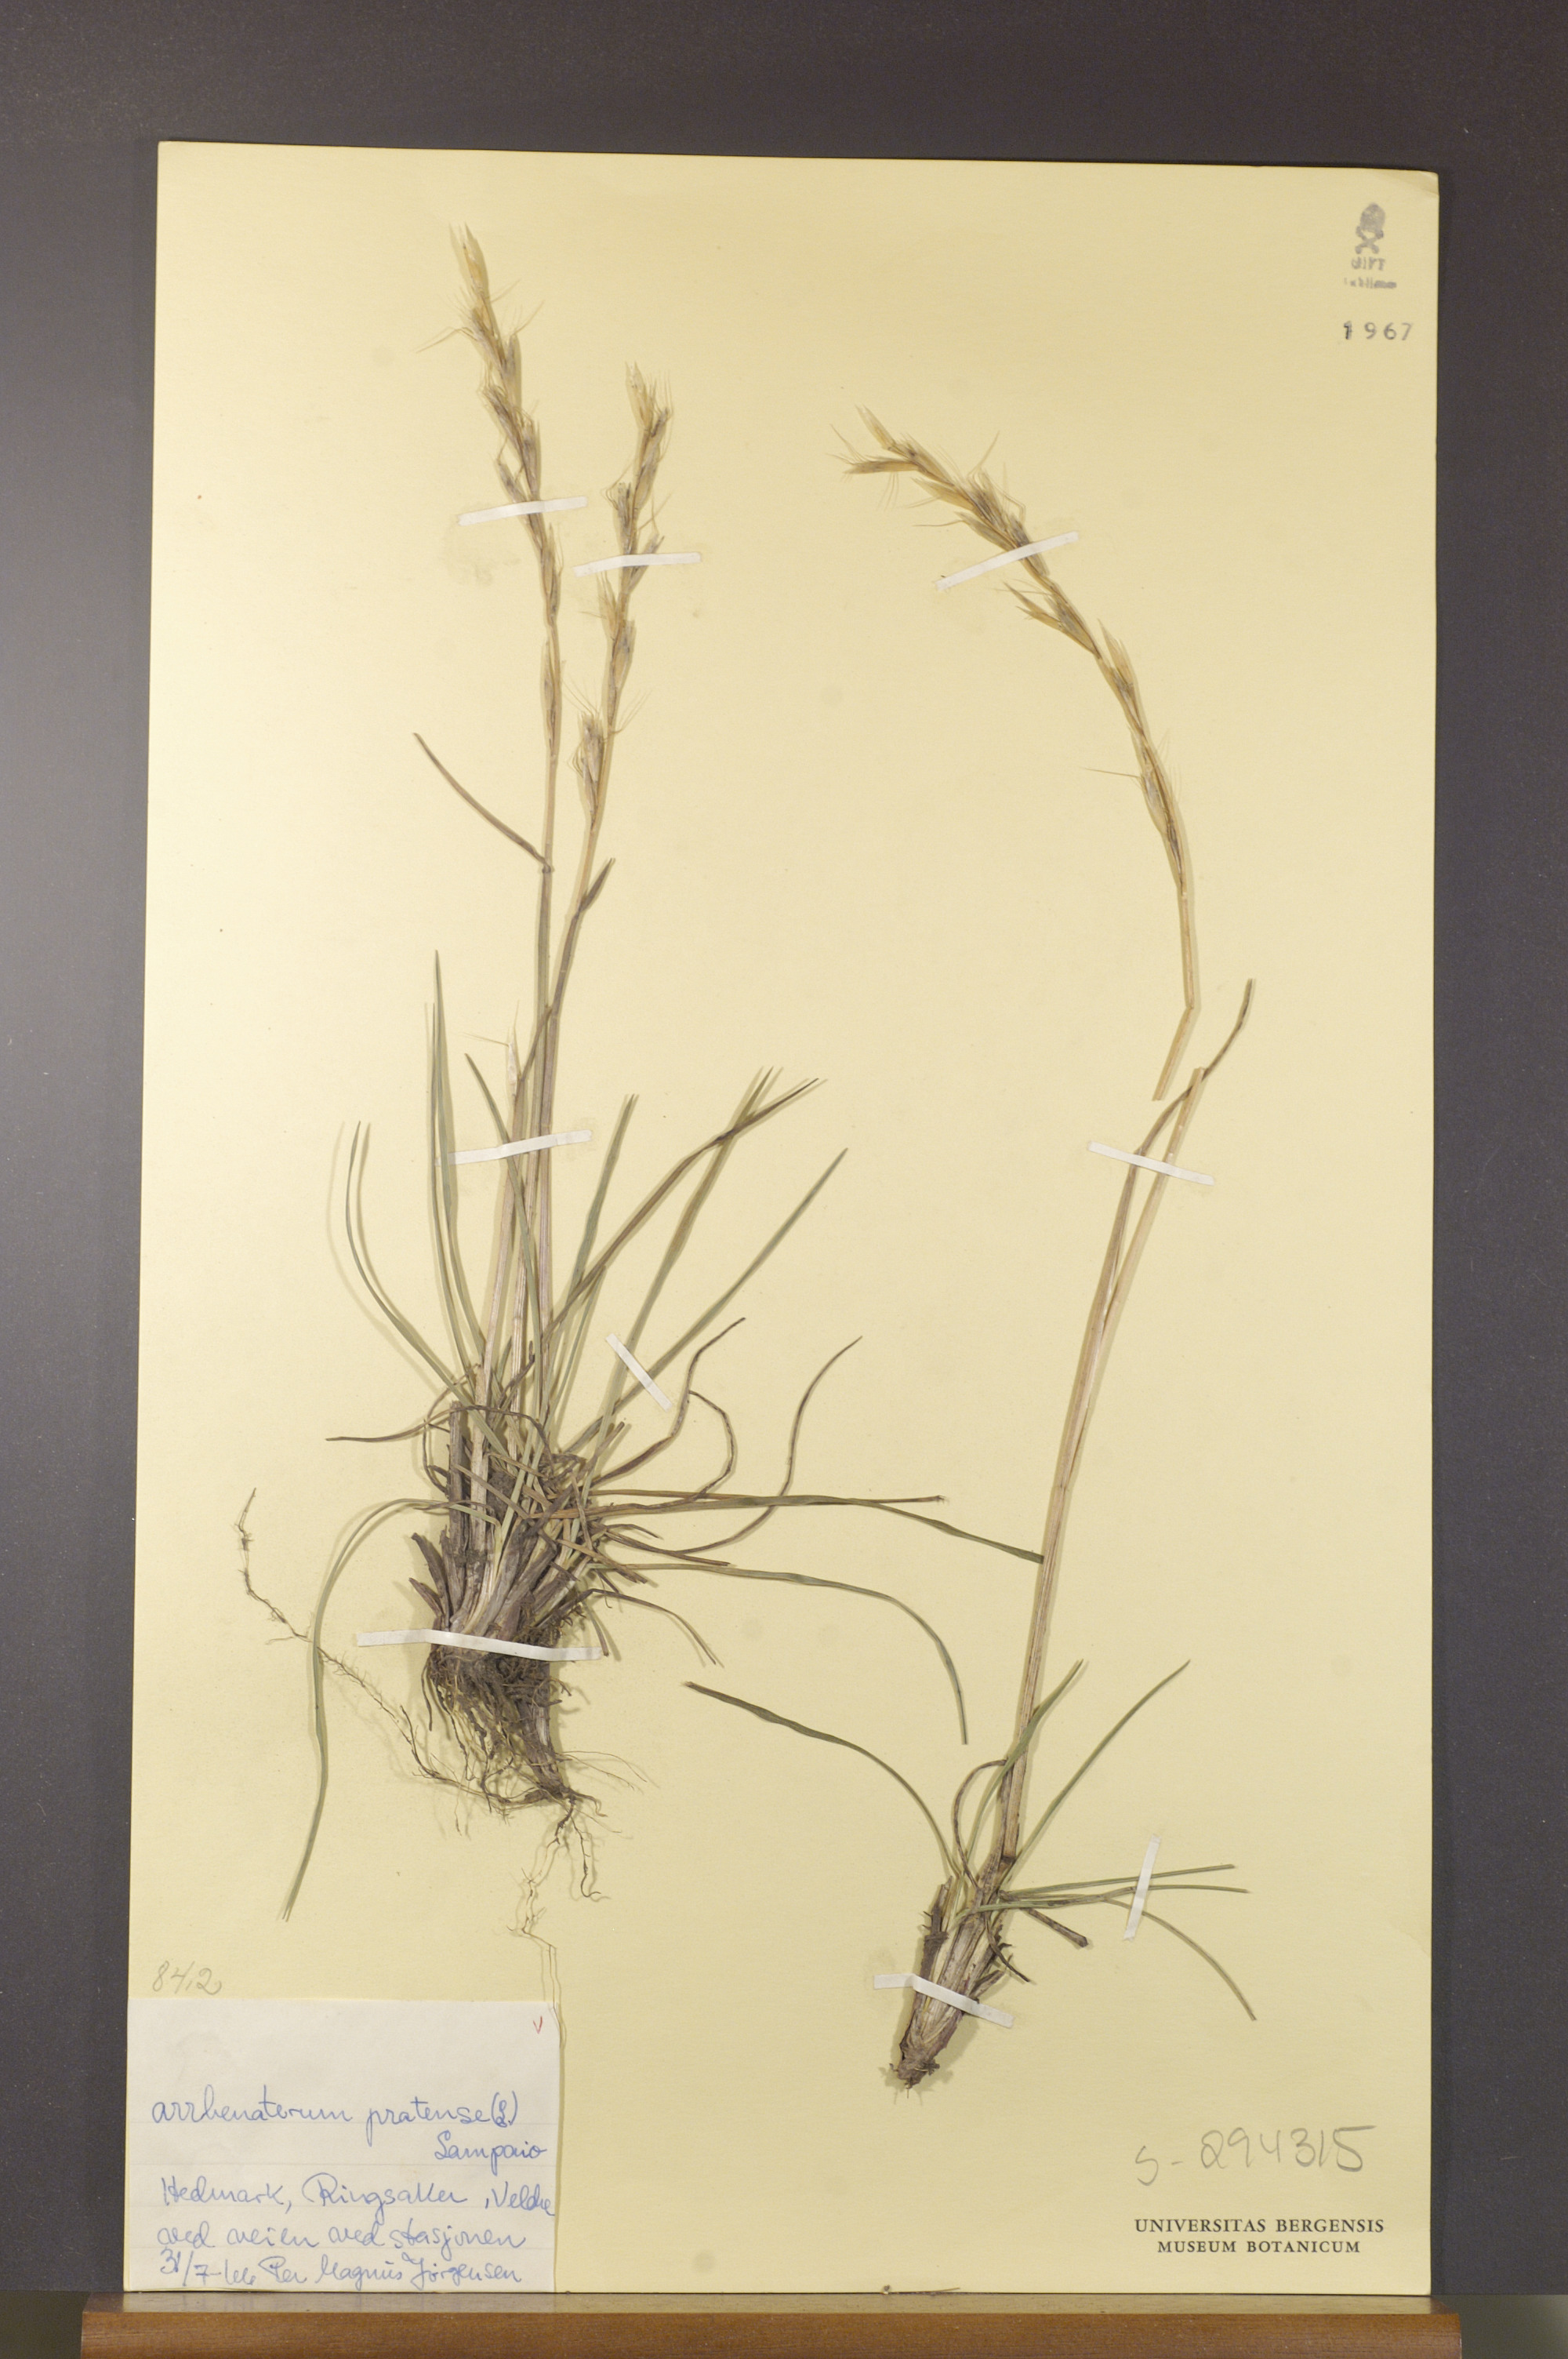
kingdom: Plantae
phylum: Tracheophyta
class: Liliopsida
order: Poales
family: Poaceae
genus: Helictochloa
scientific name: Helictochloa pratensis
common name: Meadow oat grass
